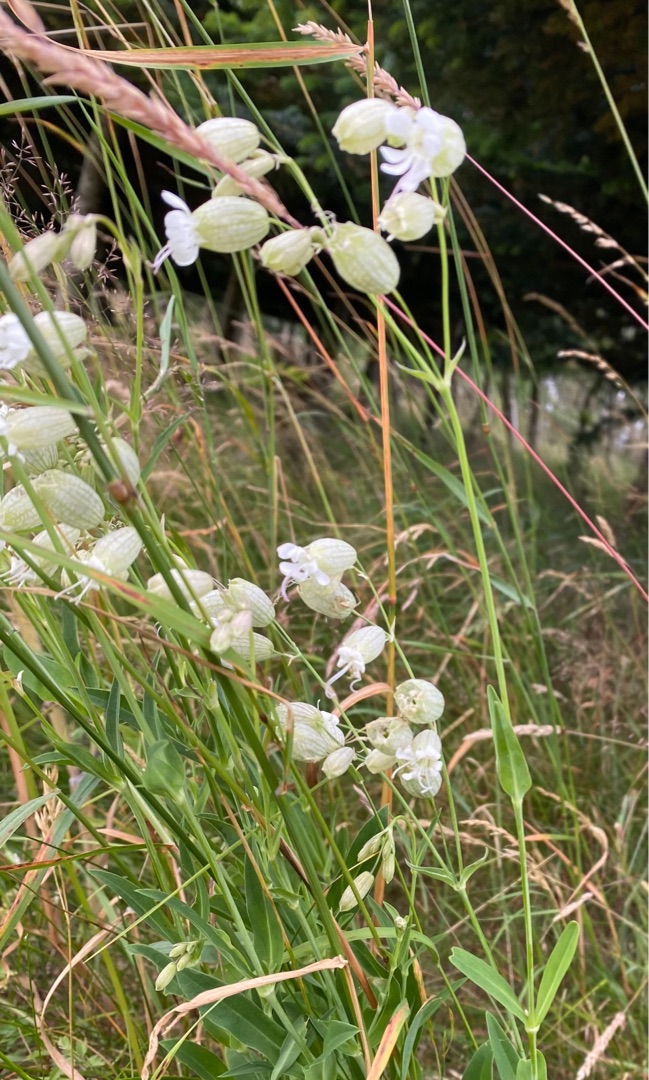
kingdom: Plantae
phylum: Tracheophyta
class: Magnoliopsida
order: Caryophyllales
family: Caryophyllaceae
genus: Silene
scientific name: Silene vulgaris
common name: Blæresmælde
